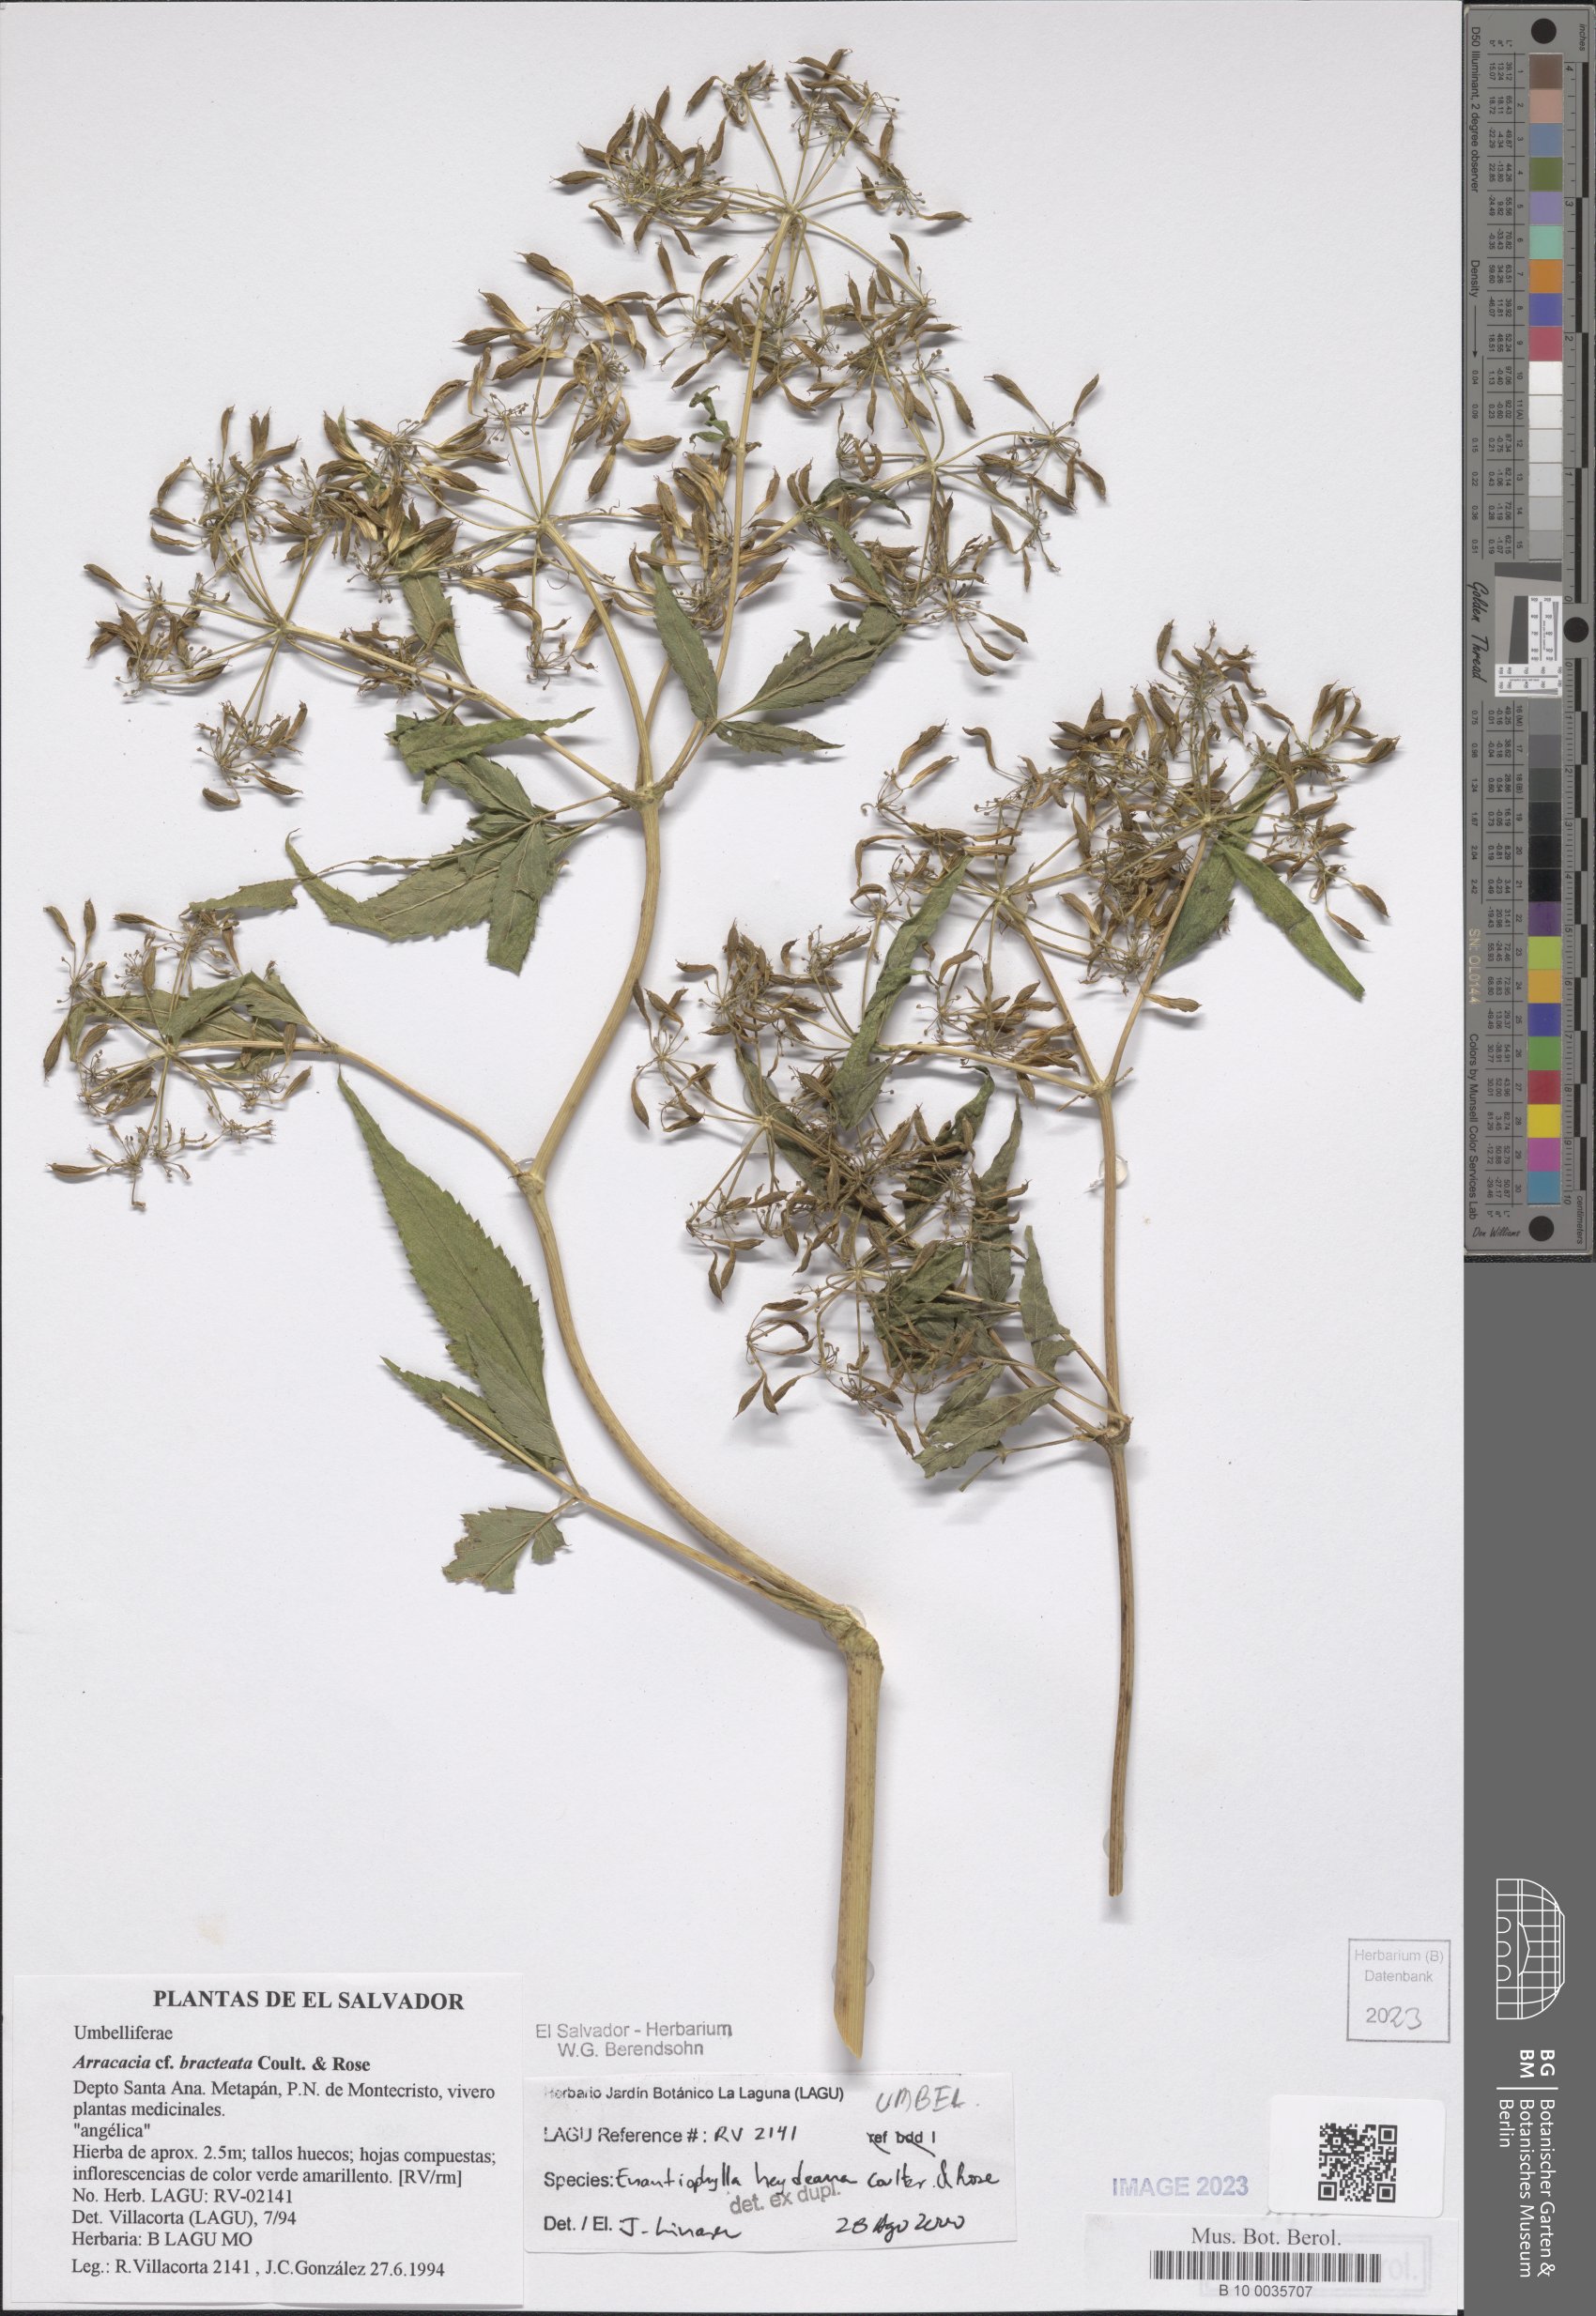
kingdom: Plantae
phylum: Tracheophyta
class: Magnoliopsida
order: Apiales
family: Apiaceae
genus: Enantiophylla
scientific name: Enantiophylla heydeana
